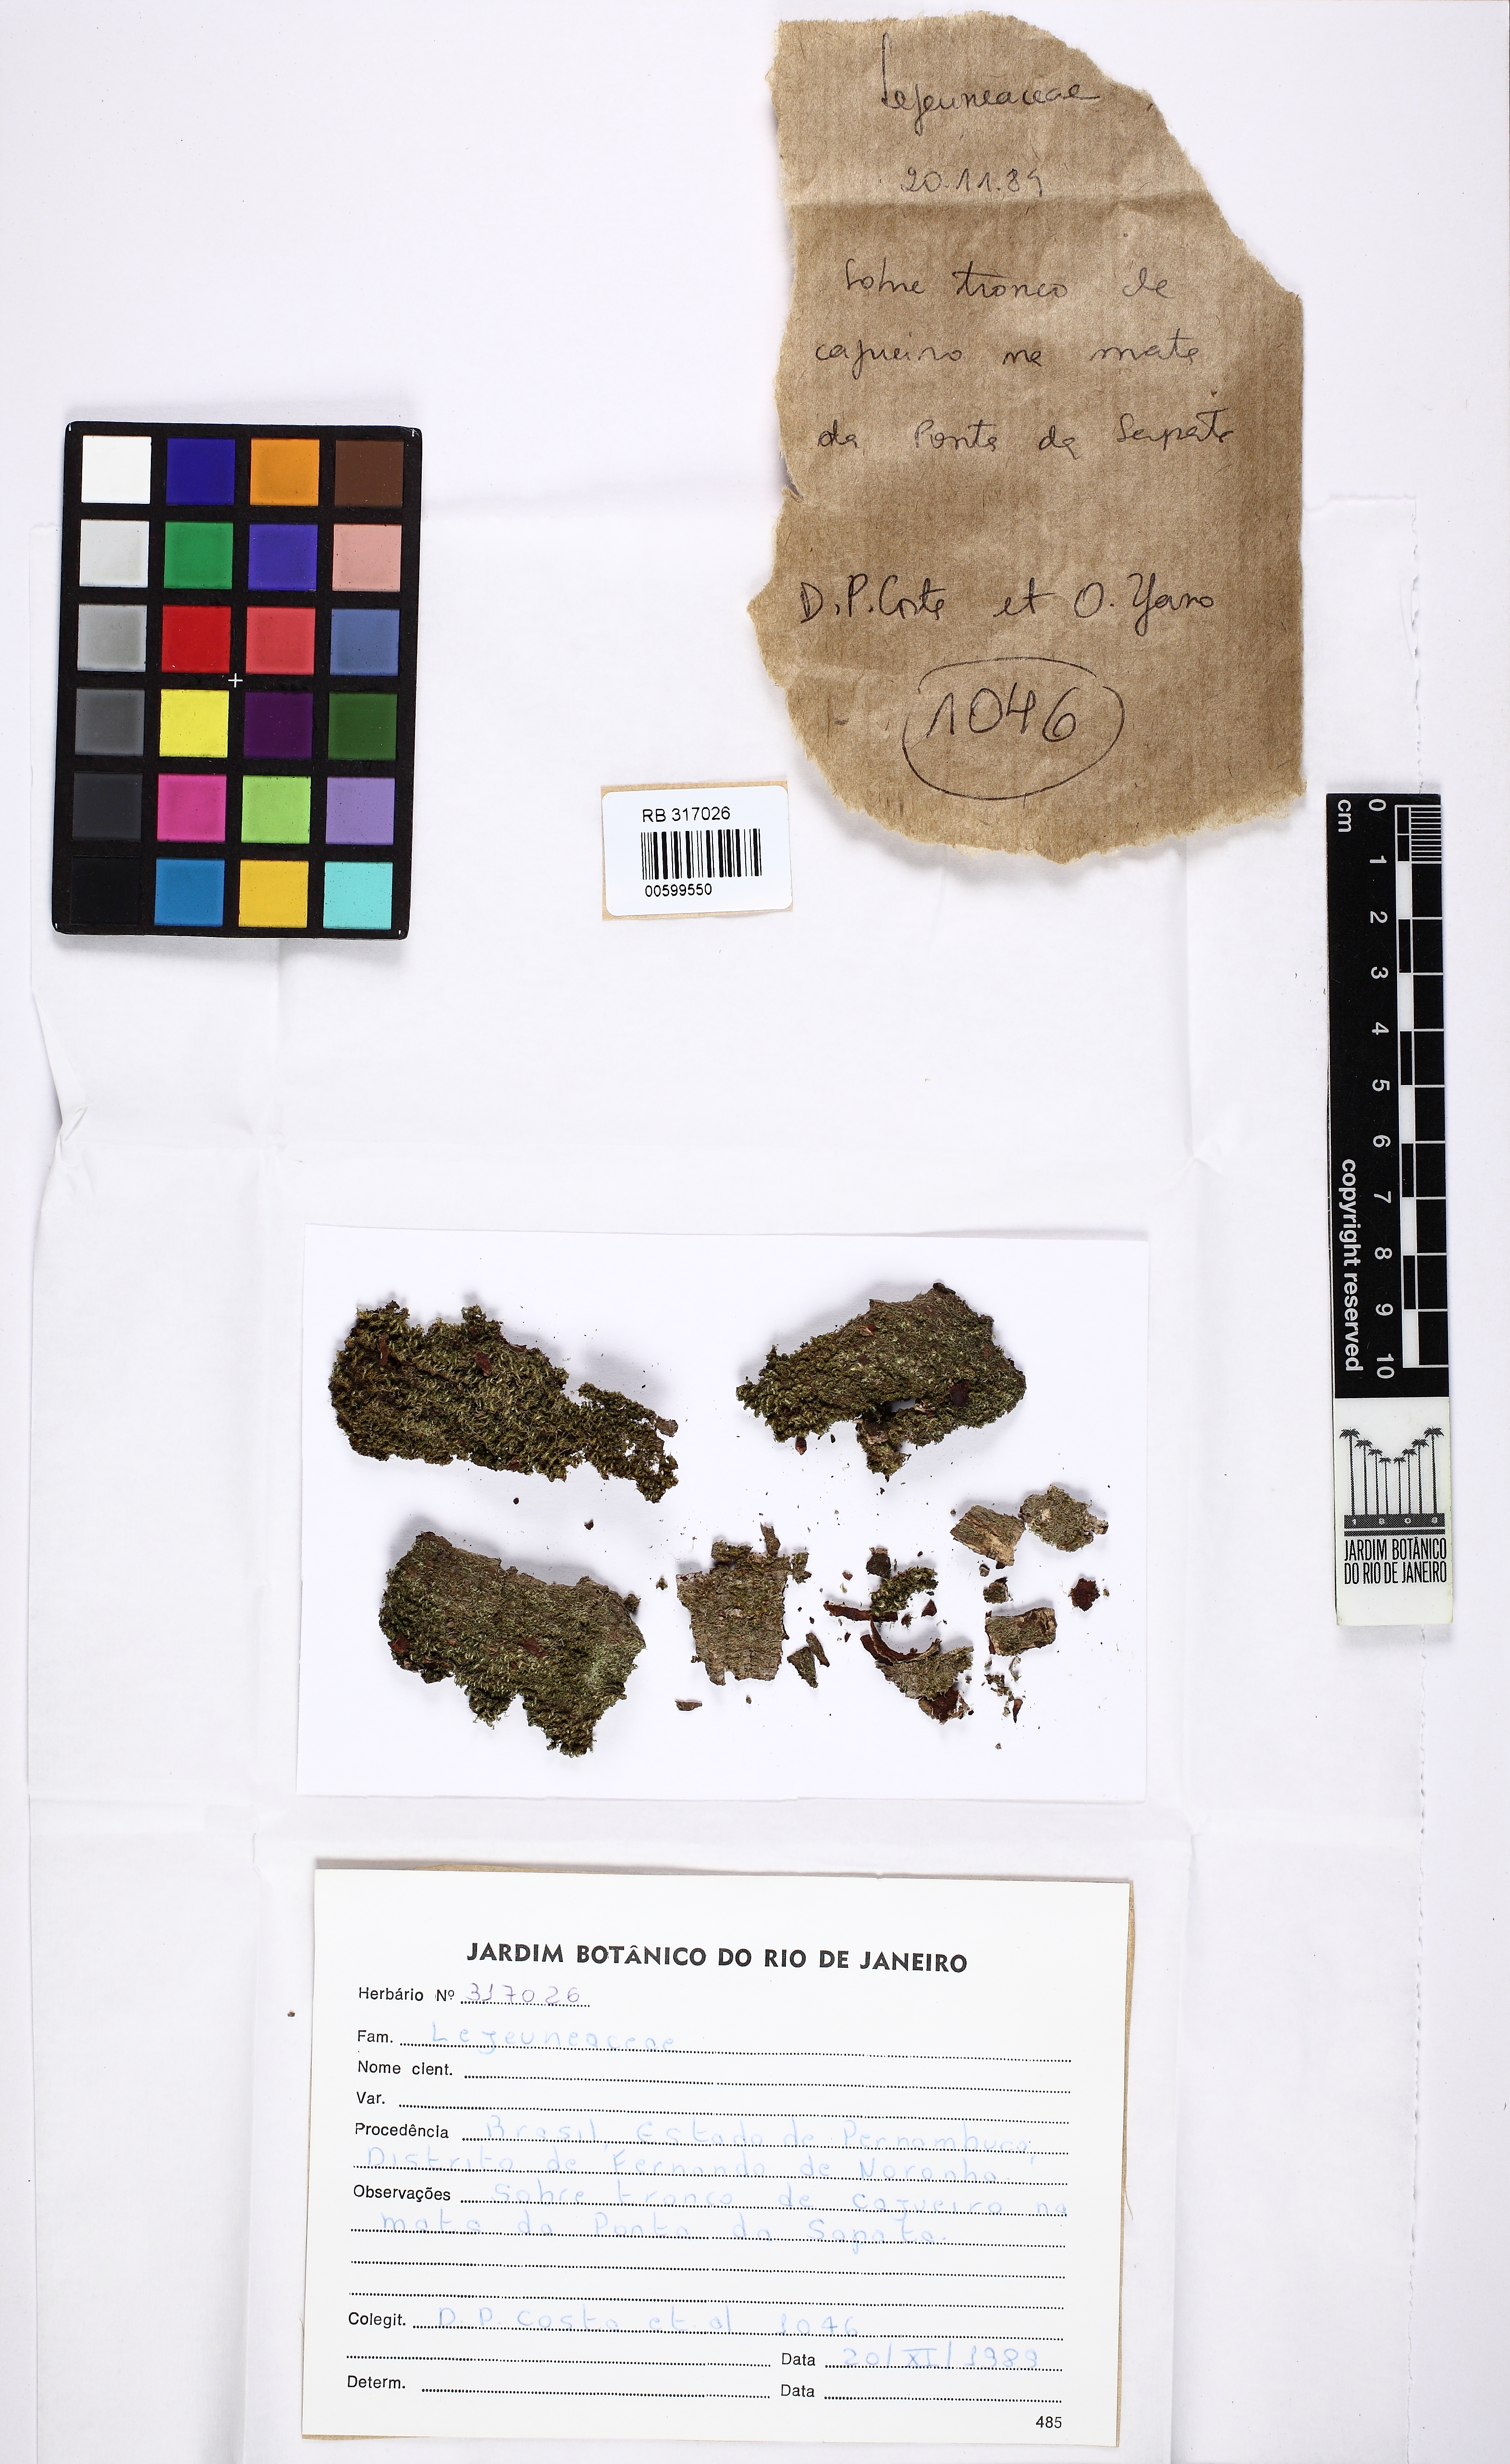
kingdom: Plantae
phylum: Marchantiophyta
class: Jungermanniopsida
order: Porellales
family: Lejeuneaceae
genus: Lejeunea
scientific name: Lejeunea laetevirens
